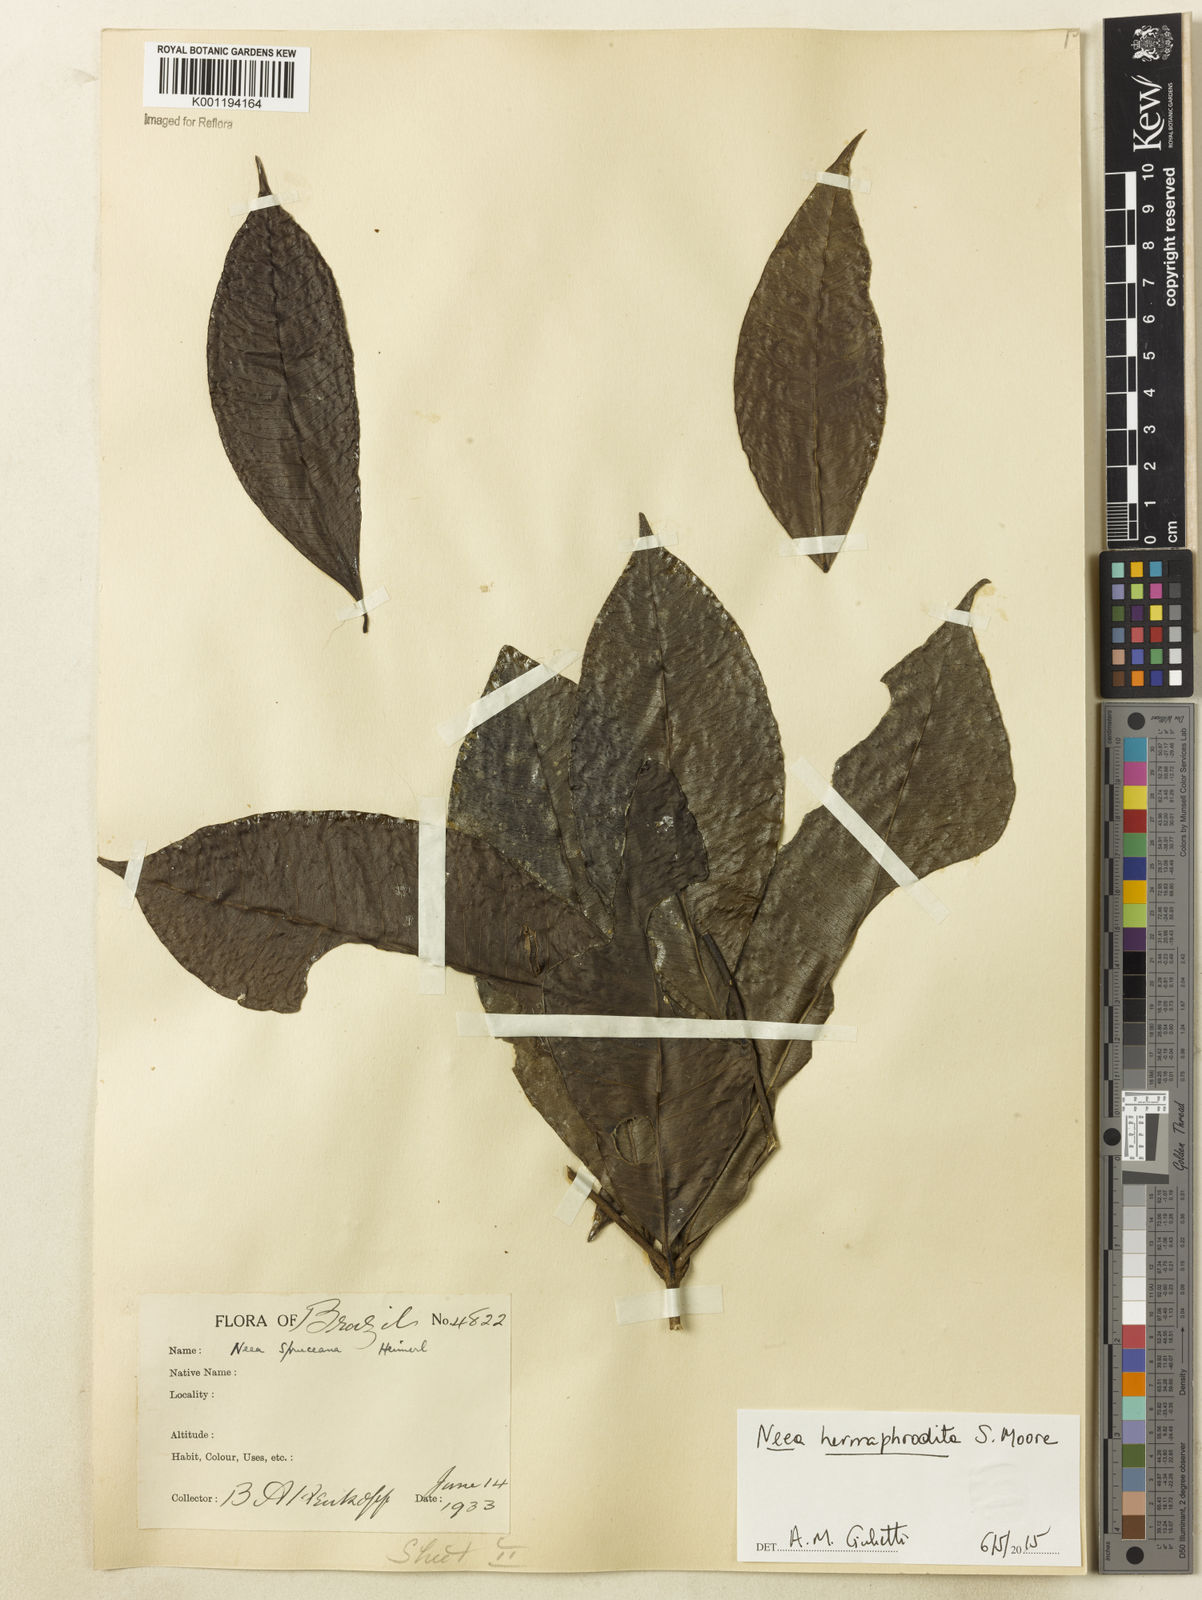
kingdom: Plantae
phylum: Tracheophyta
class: Magnoliopsida
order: Caryophyllales
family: Nyctaginaceae
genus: Neea
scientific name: Neea hermaphrodita
